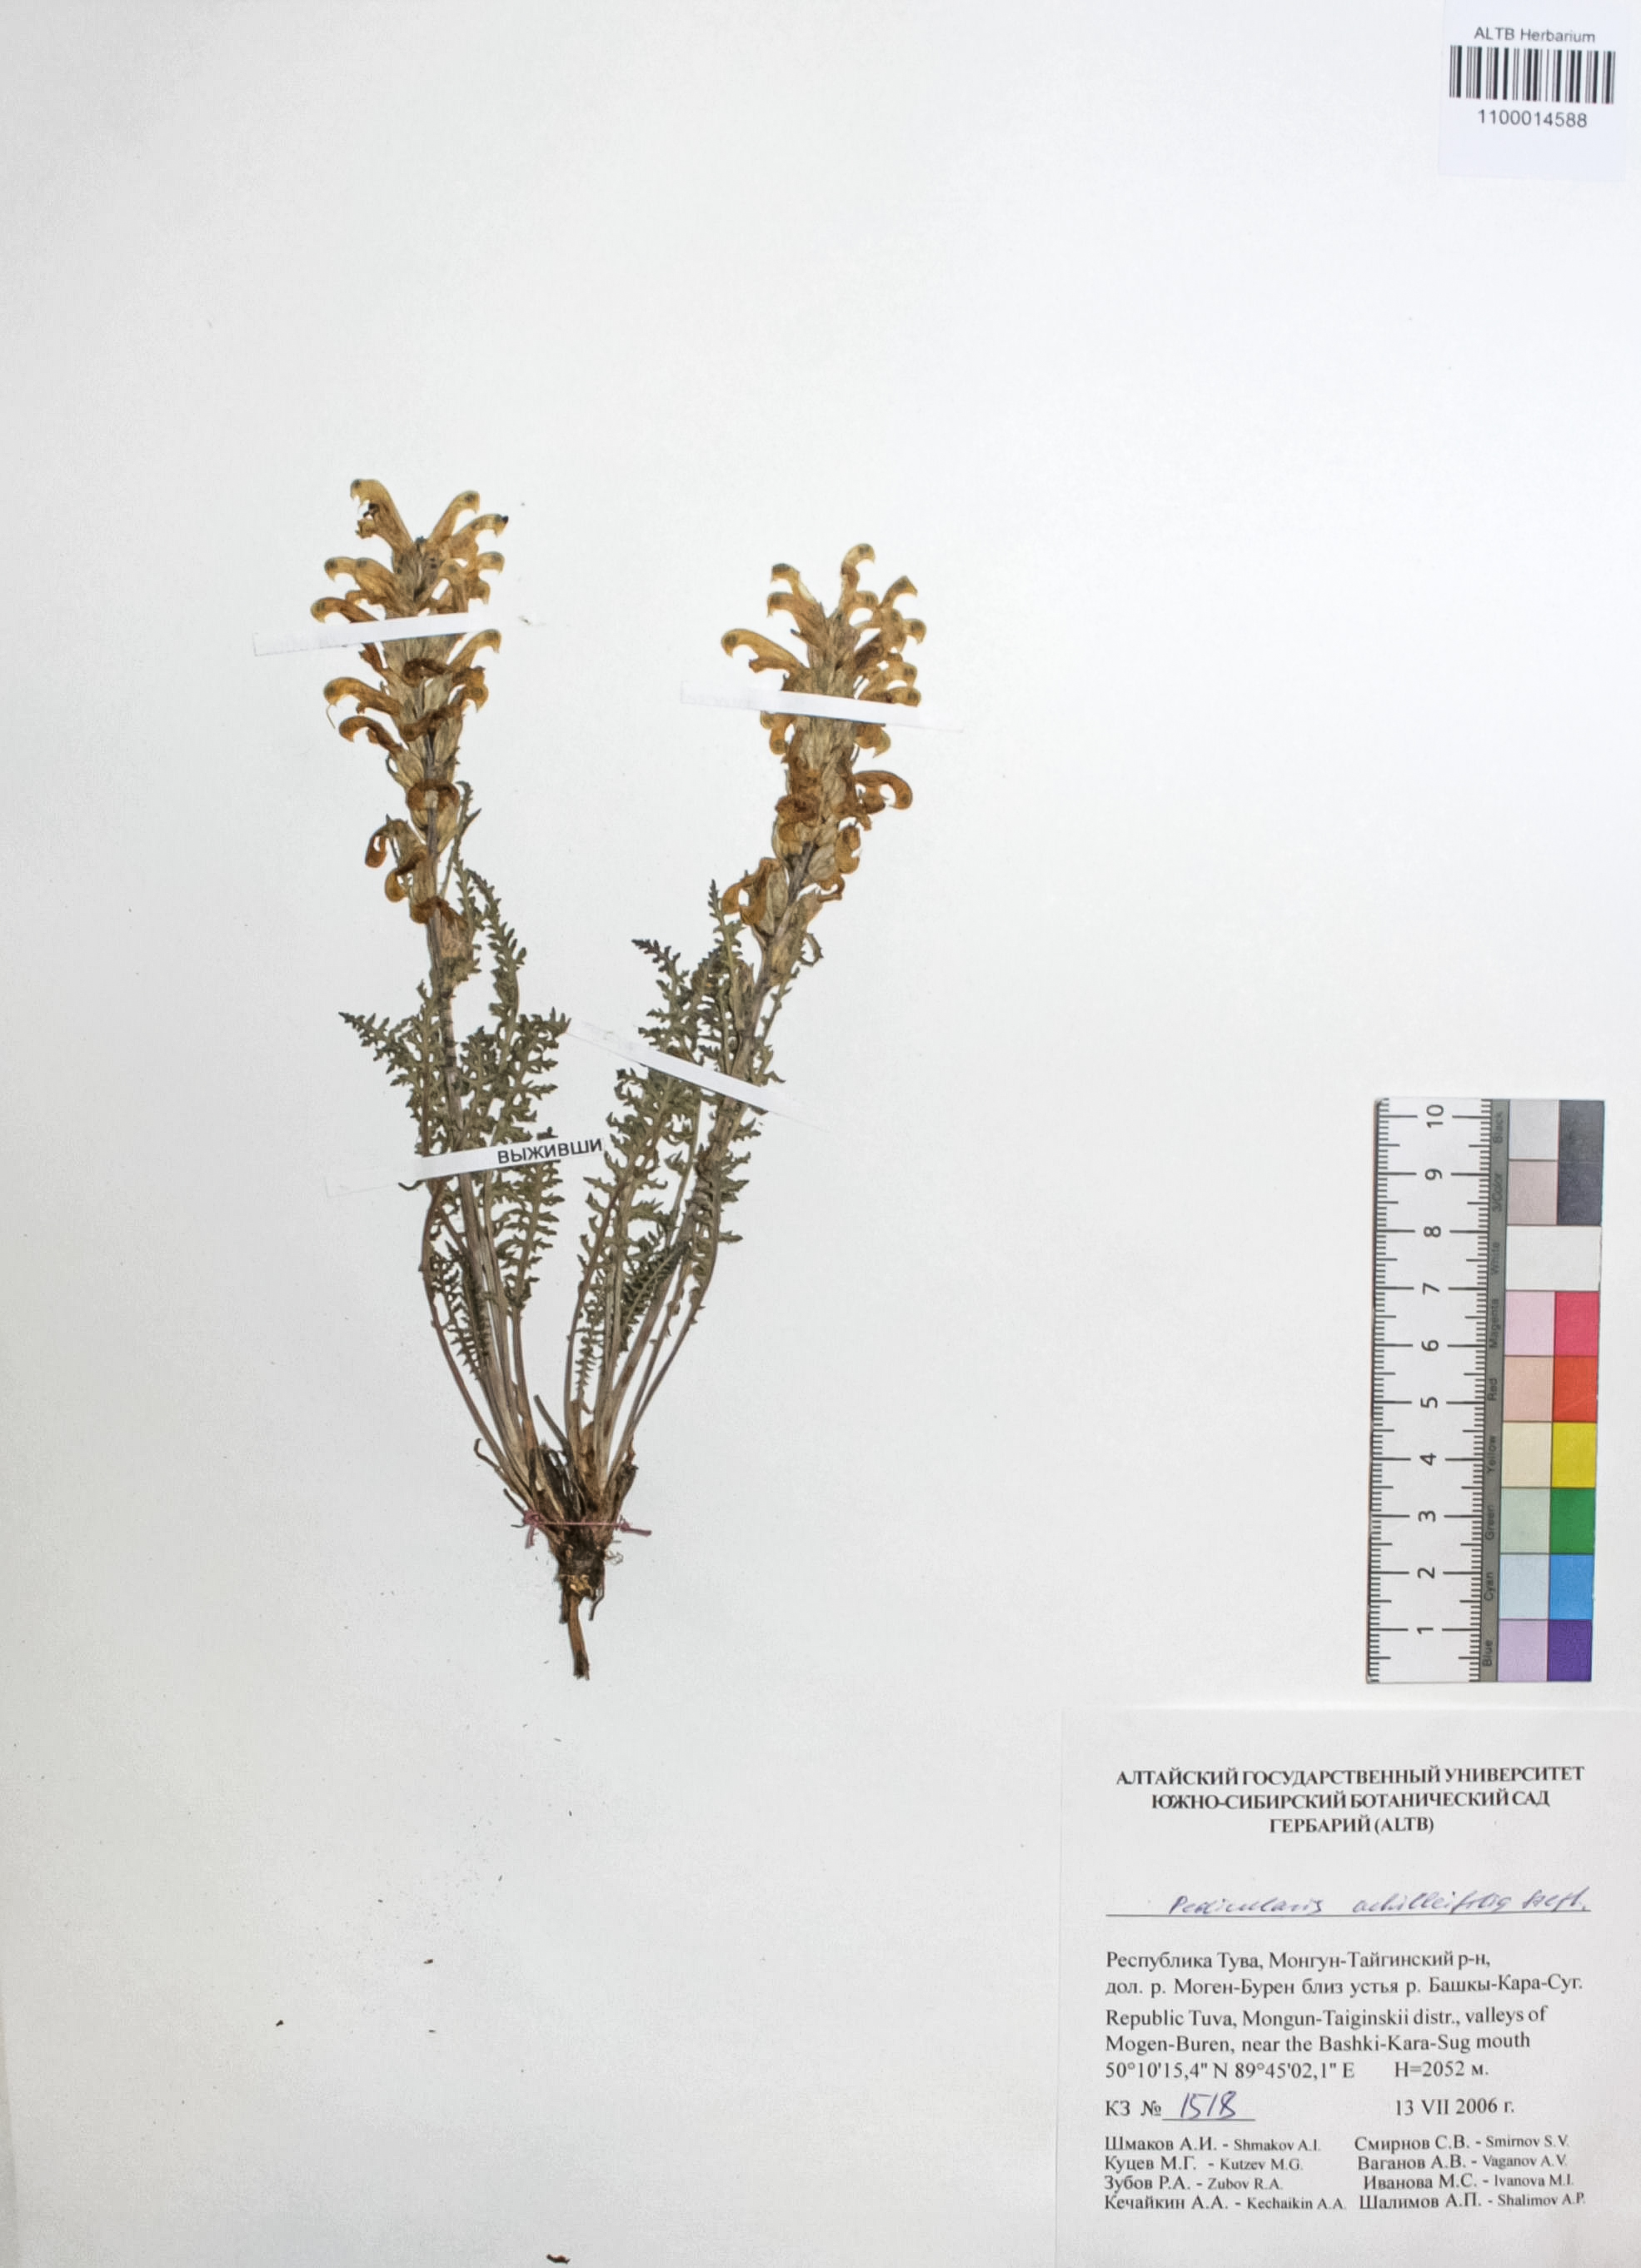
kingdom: Plantae
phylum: Tracheophyta
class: Magnoliopsida
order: Lamiales
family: Orobanchaceae
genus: Pedicularis
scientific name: Pedicularis achilleifolia
